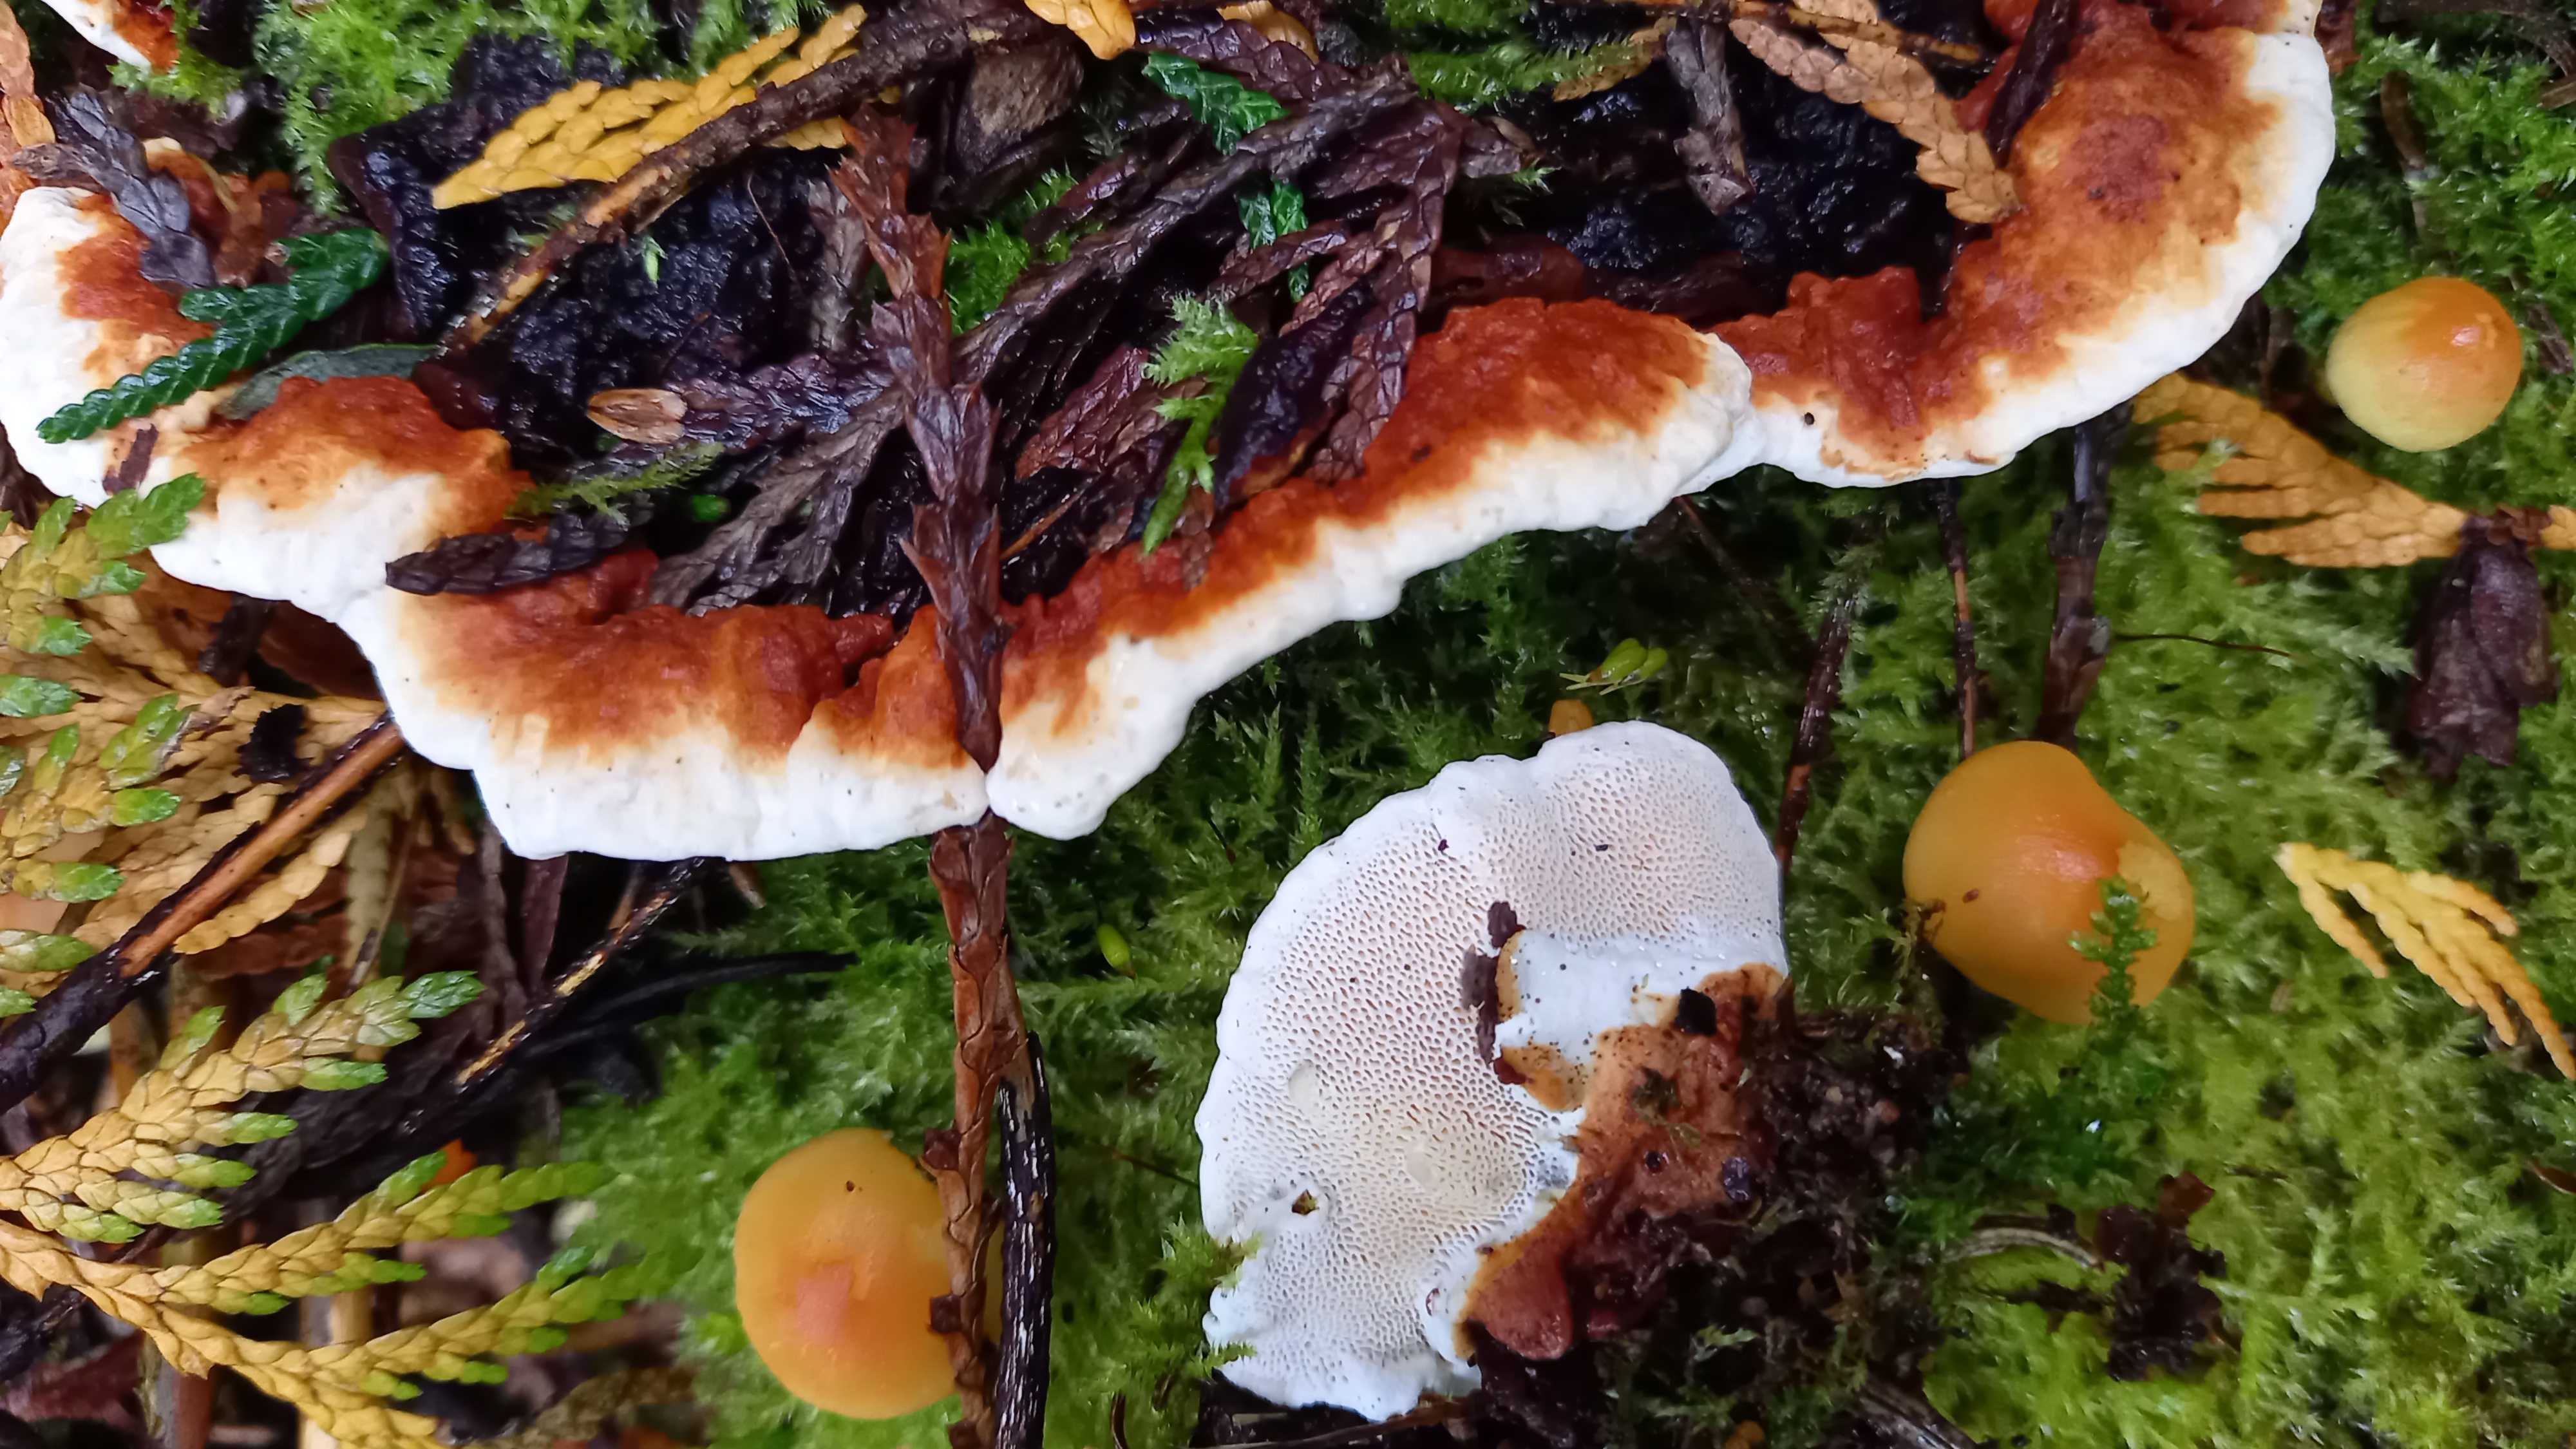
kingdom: Fungi
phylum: Basidiomycota
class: Agaricomycetes
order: Russulales
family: Bondarzewiaceae
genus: Heterobasidion
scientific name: Heterobasidion annosum
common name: almindelig rodfordærver
